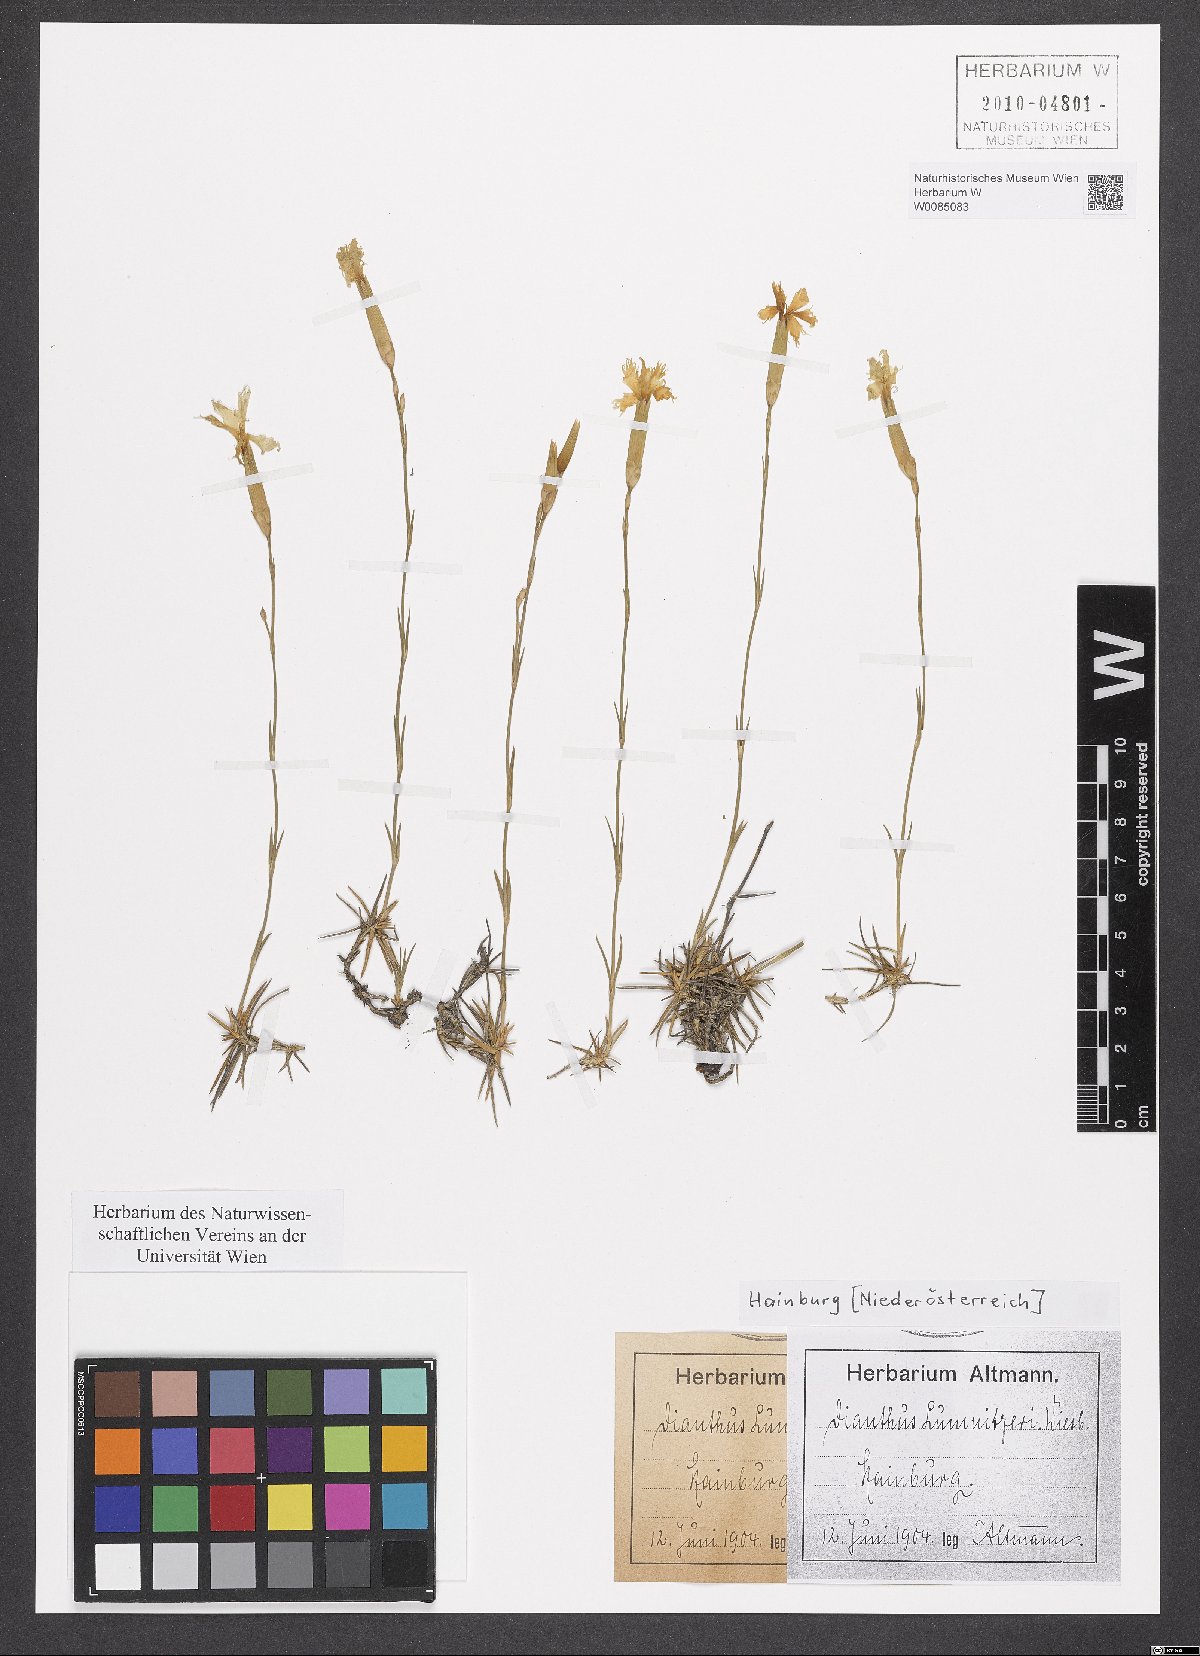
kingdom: Plantae
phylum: Tracheophyta
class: Magnoliopsida
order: Caryophyllales
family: Caryophyllaceae
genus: Dianthus
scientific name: Dianthus praecox
